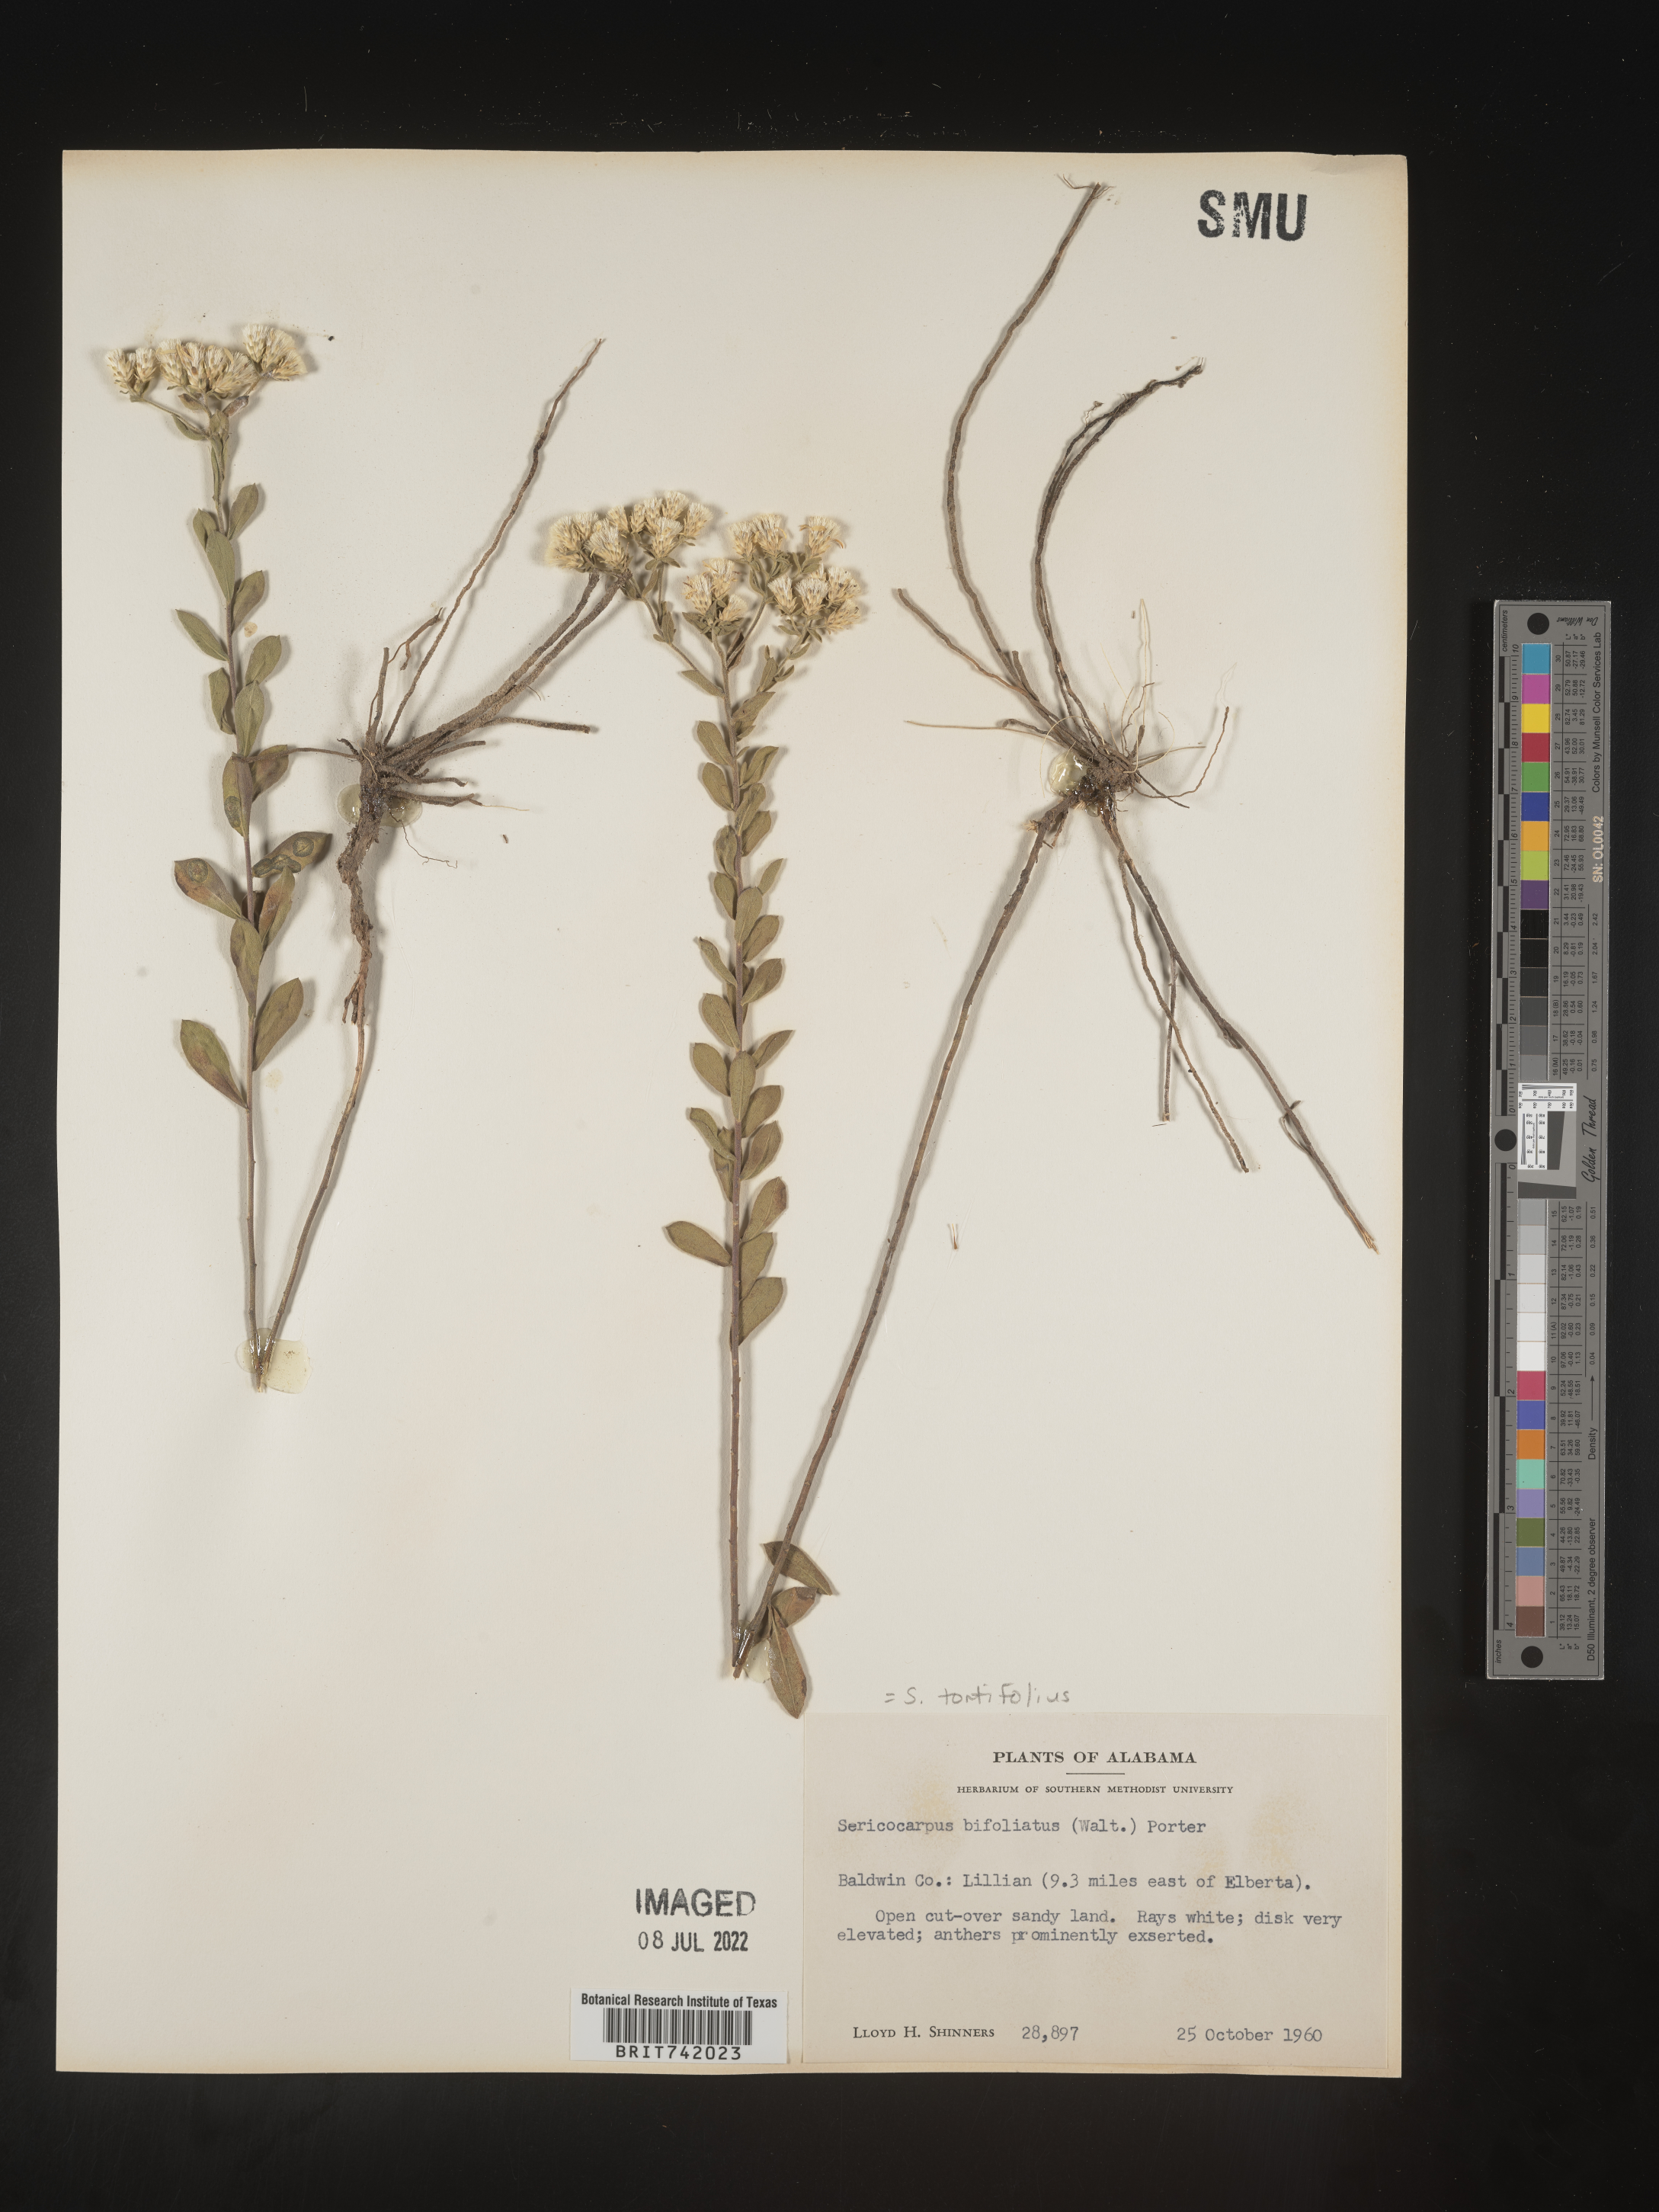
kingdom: Plantae
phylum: Tracheophyta
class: Magnoliopsida
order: Asterales
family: Asteraceae
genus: Sericocarpus
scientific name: Sericocarpus tortifolius
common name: Dixie aster
